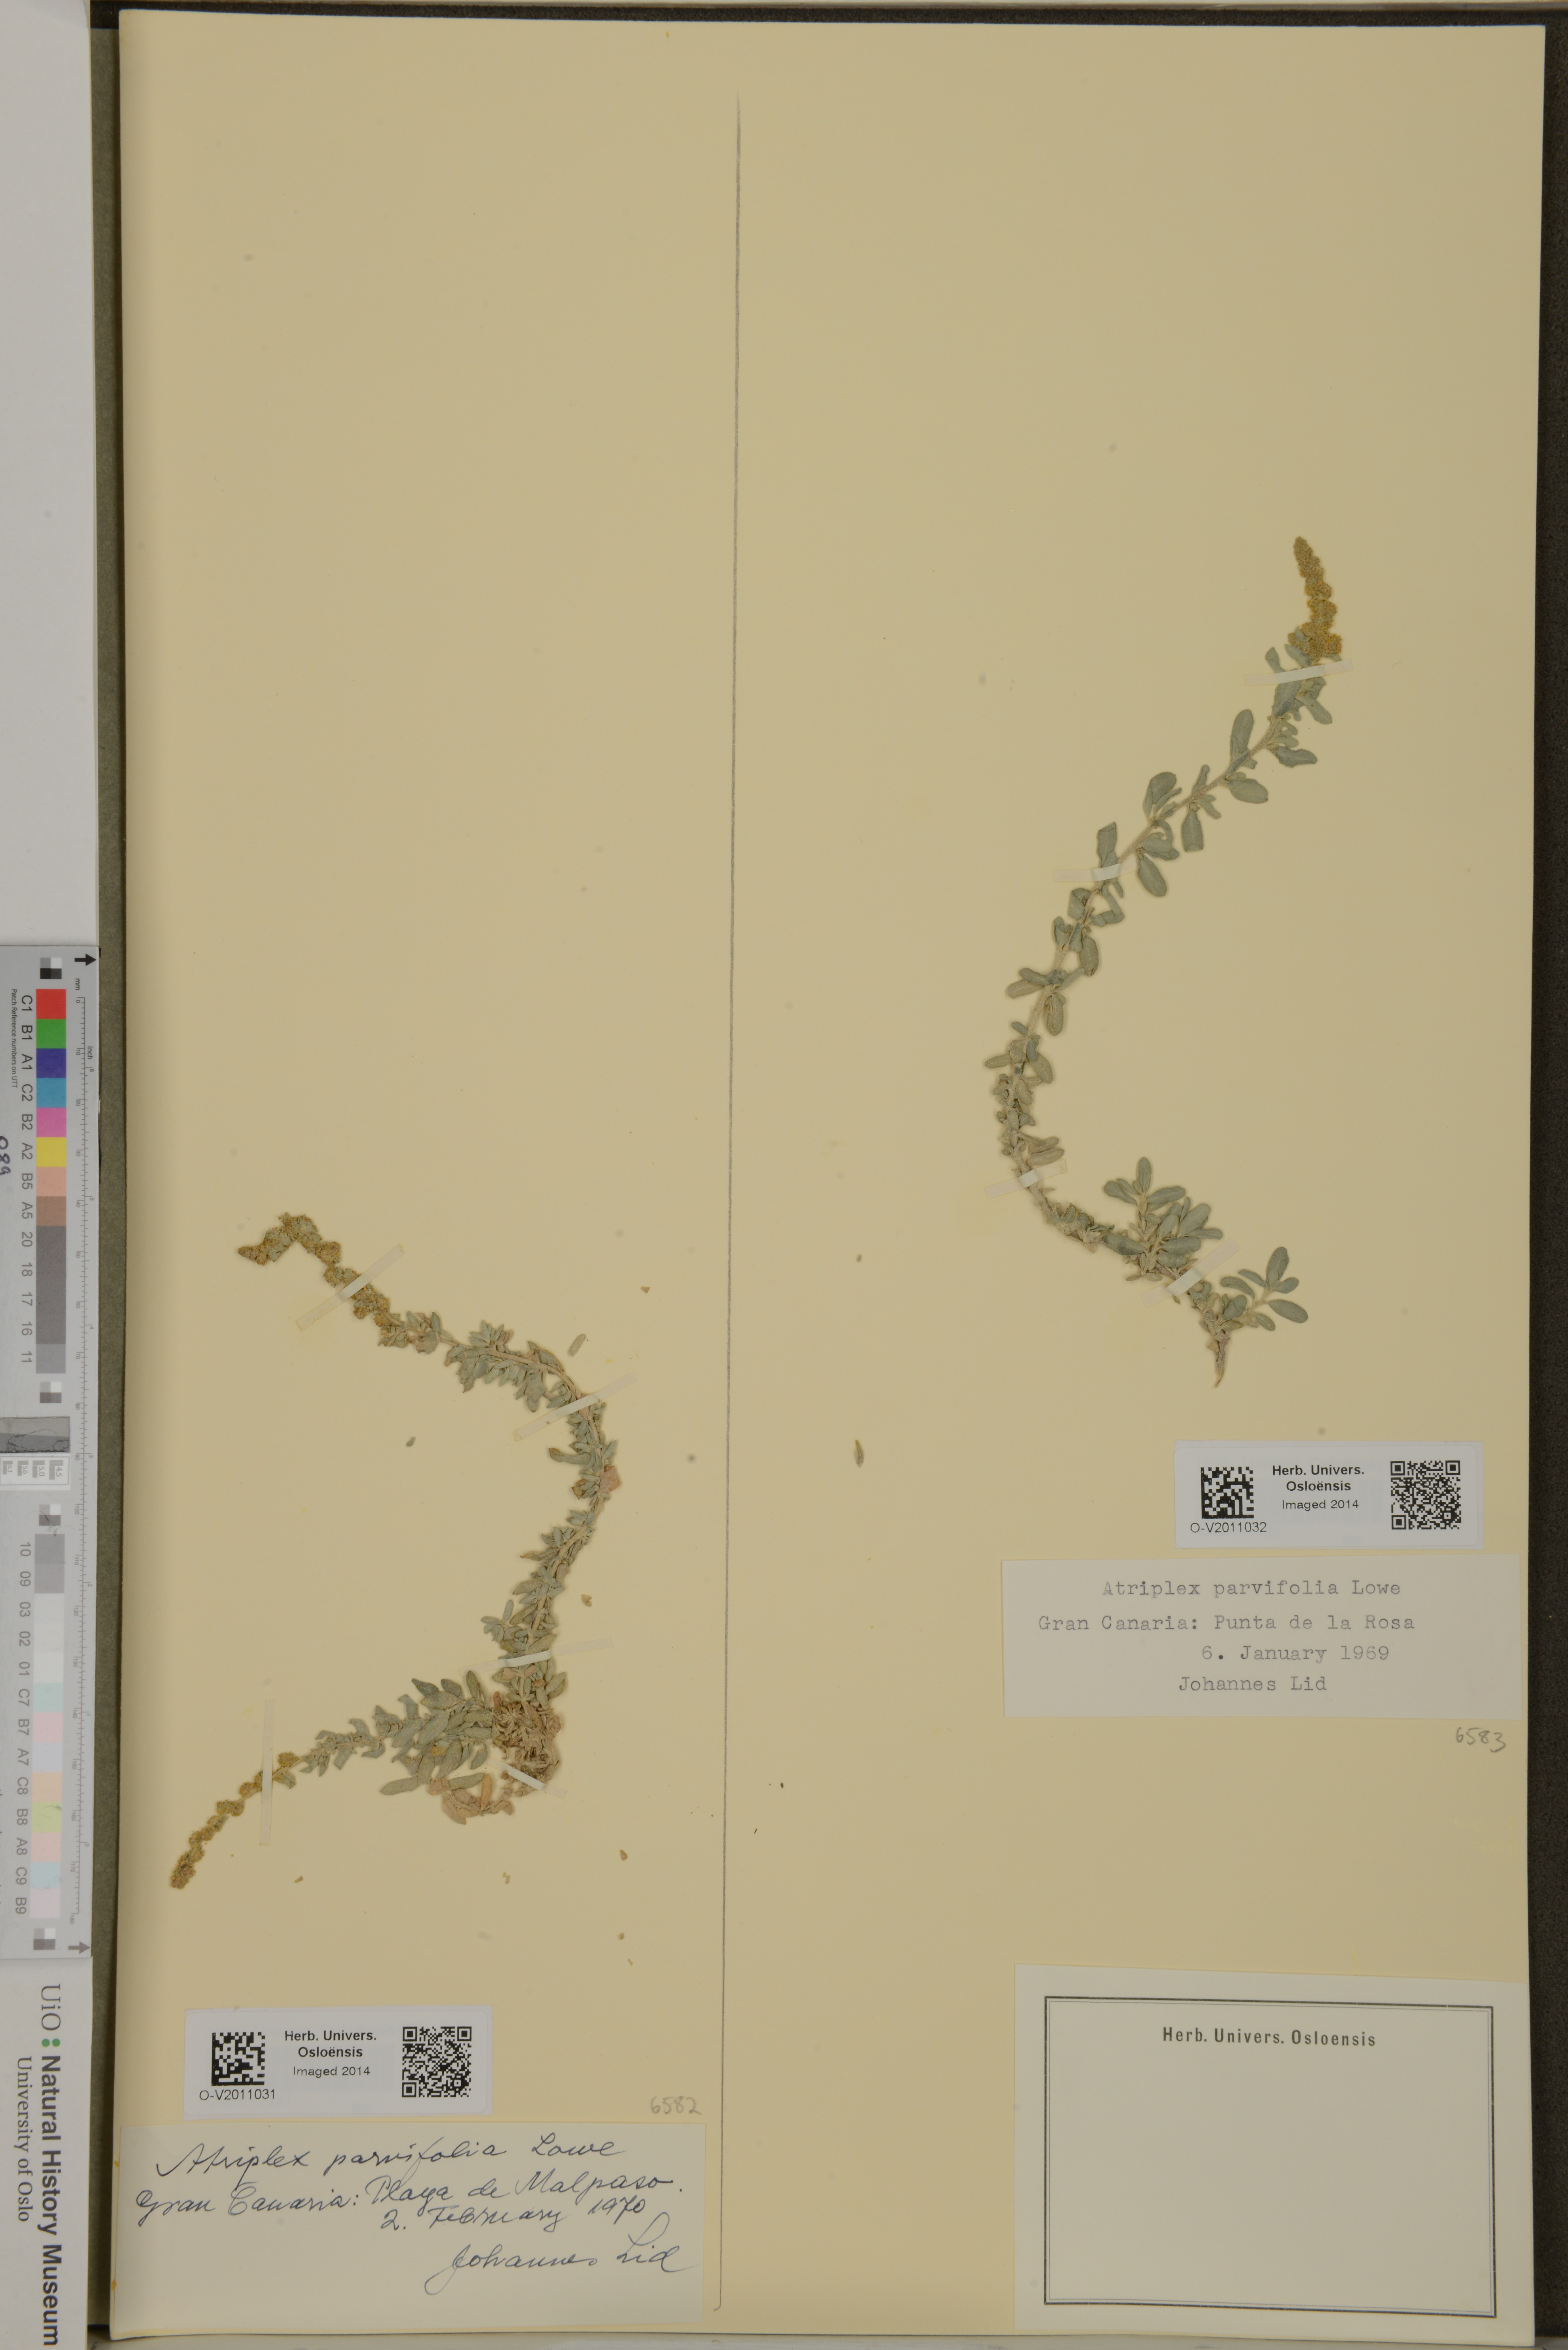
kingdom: Plantae
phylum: Tracheophyta
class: Magnoliopsida
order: Caryophyllales
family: Amaranthaceae
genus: Atriplex
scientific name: Atriplex glauca
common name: Waxy saltbush
